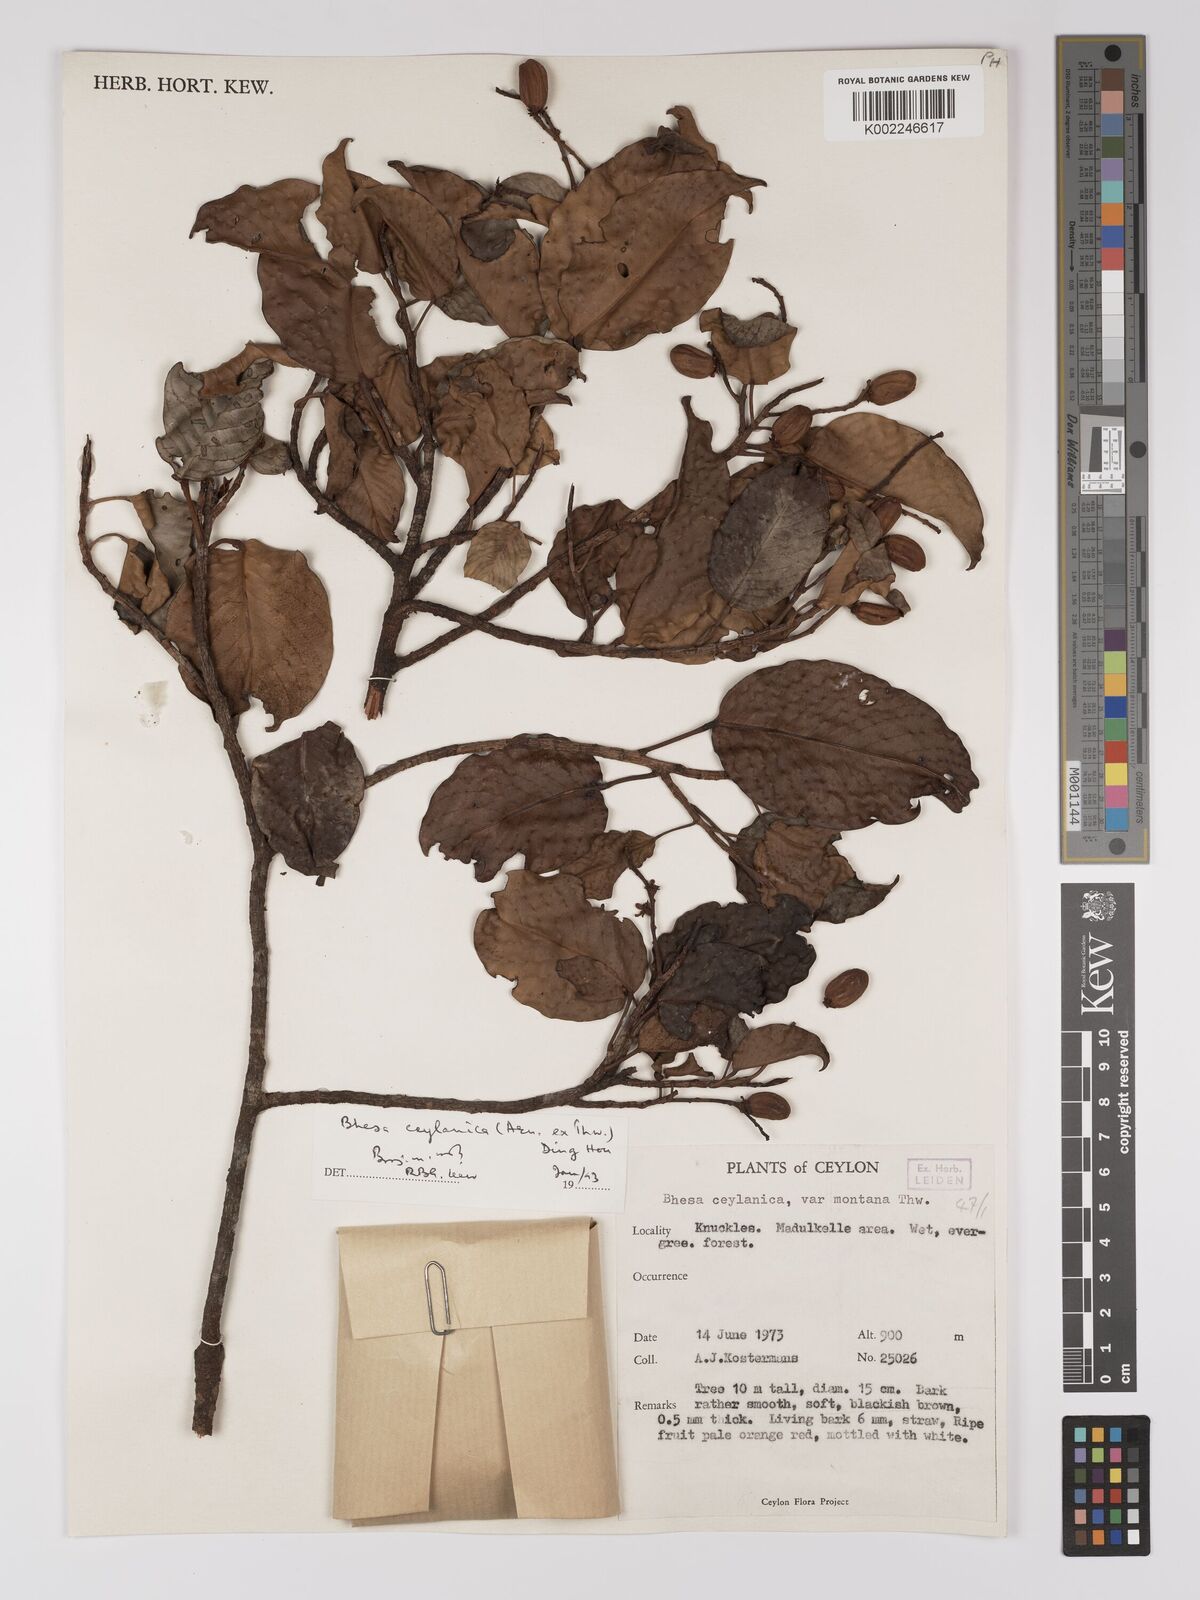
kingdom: Plantae
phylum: Tracheophyta
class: Magnoliopsida
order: Malpighiales
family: Centroplacaceae
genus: Bhesa
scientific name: Bhesa ceylanica
